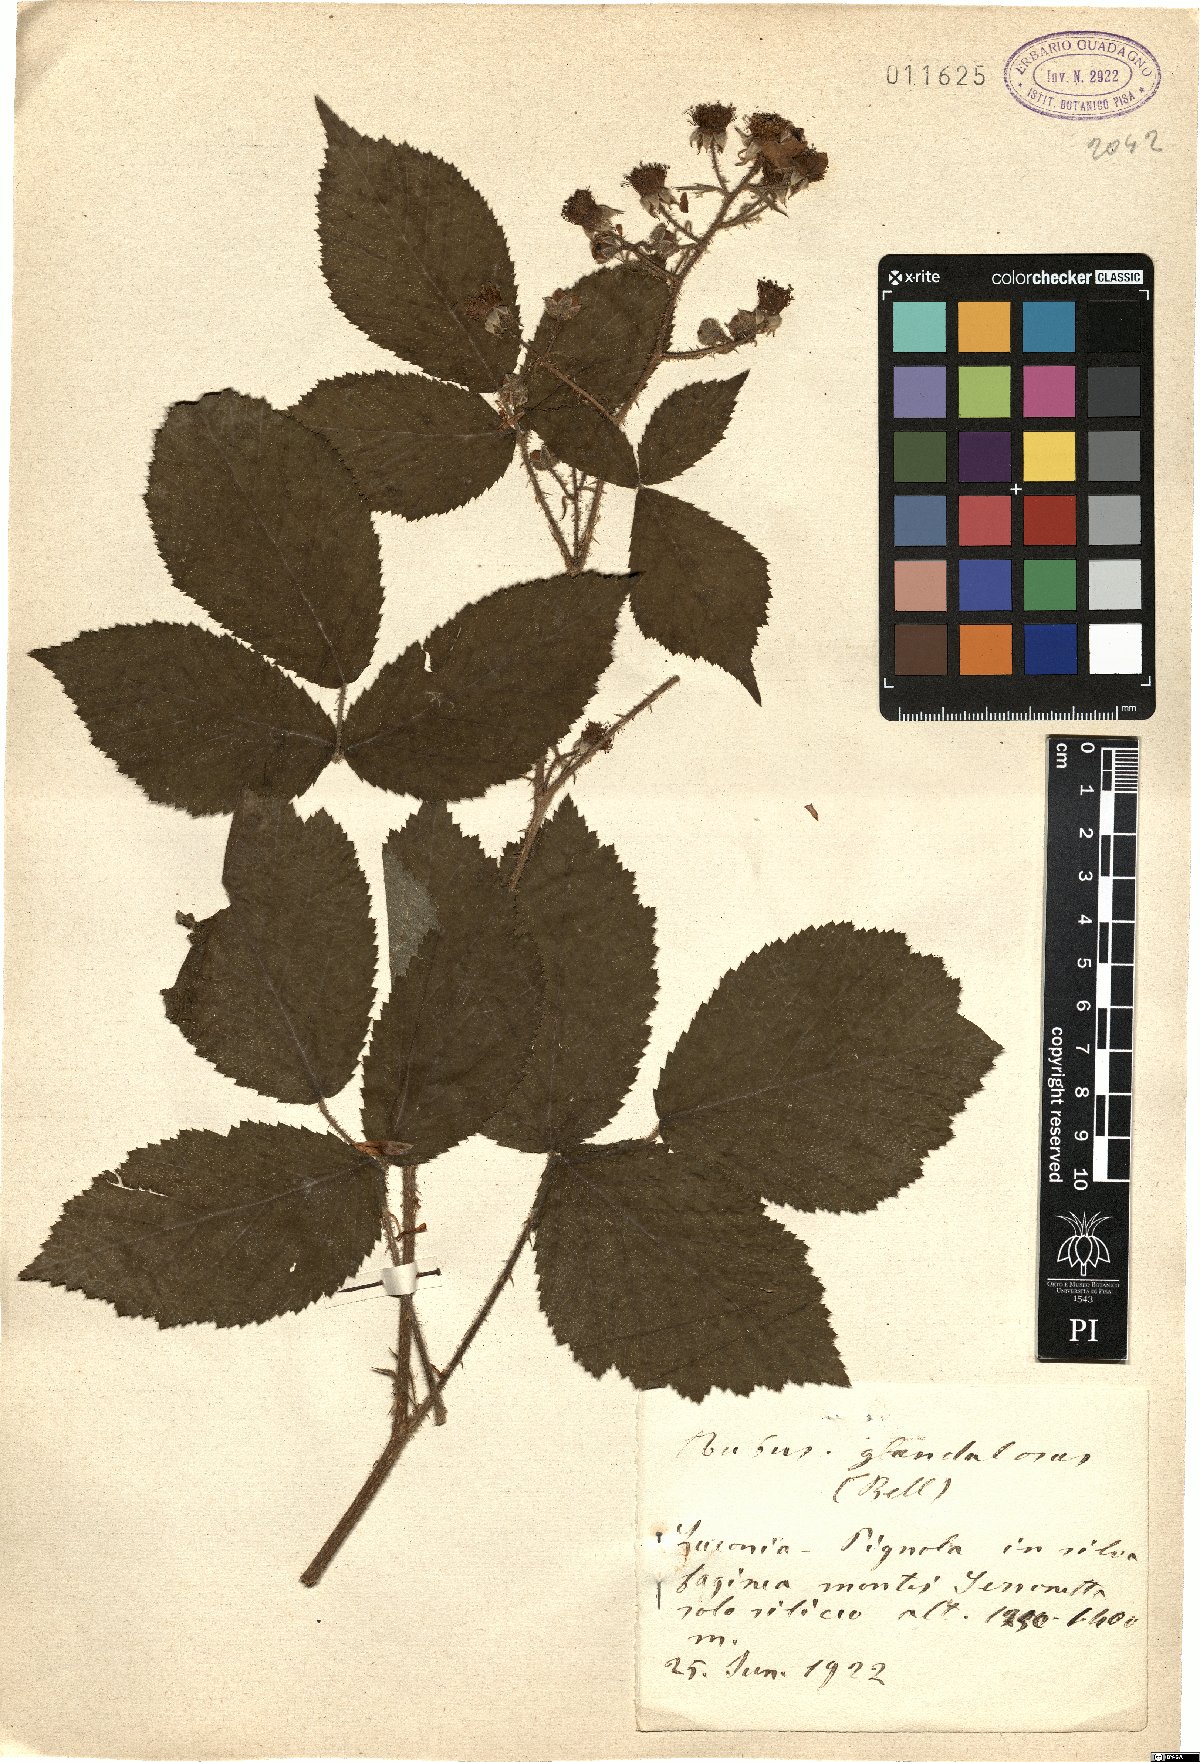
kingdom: Plantae
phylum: Tracheophyta
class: Magnoliopsida
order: Rosales
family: Rosaceae
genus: Rubus
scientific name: Rubus hirtus
